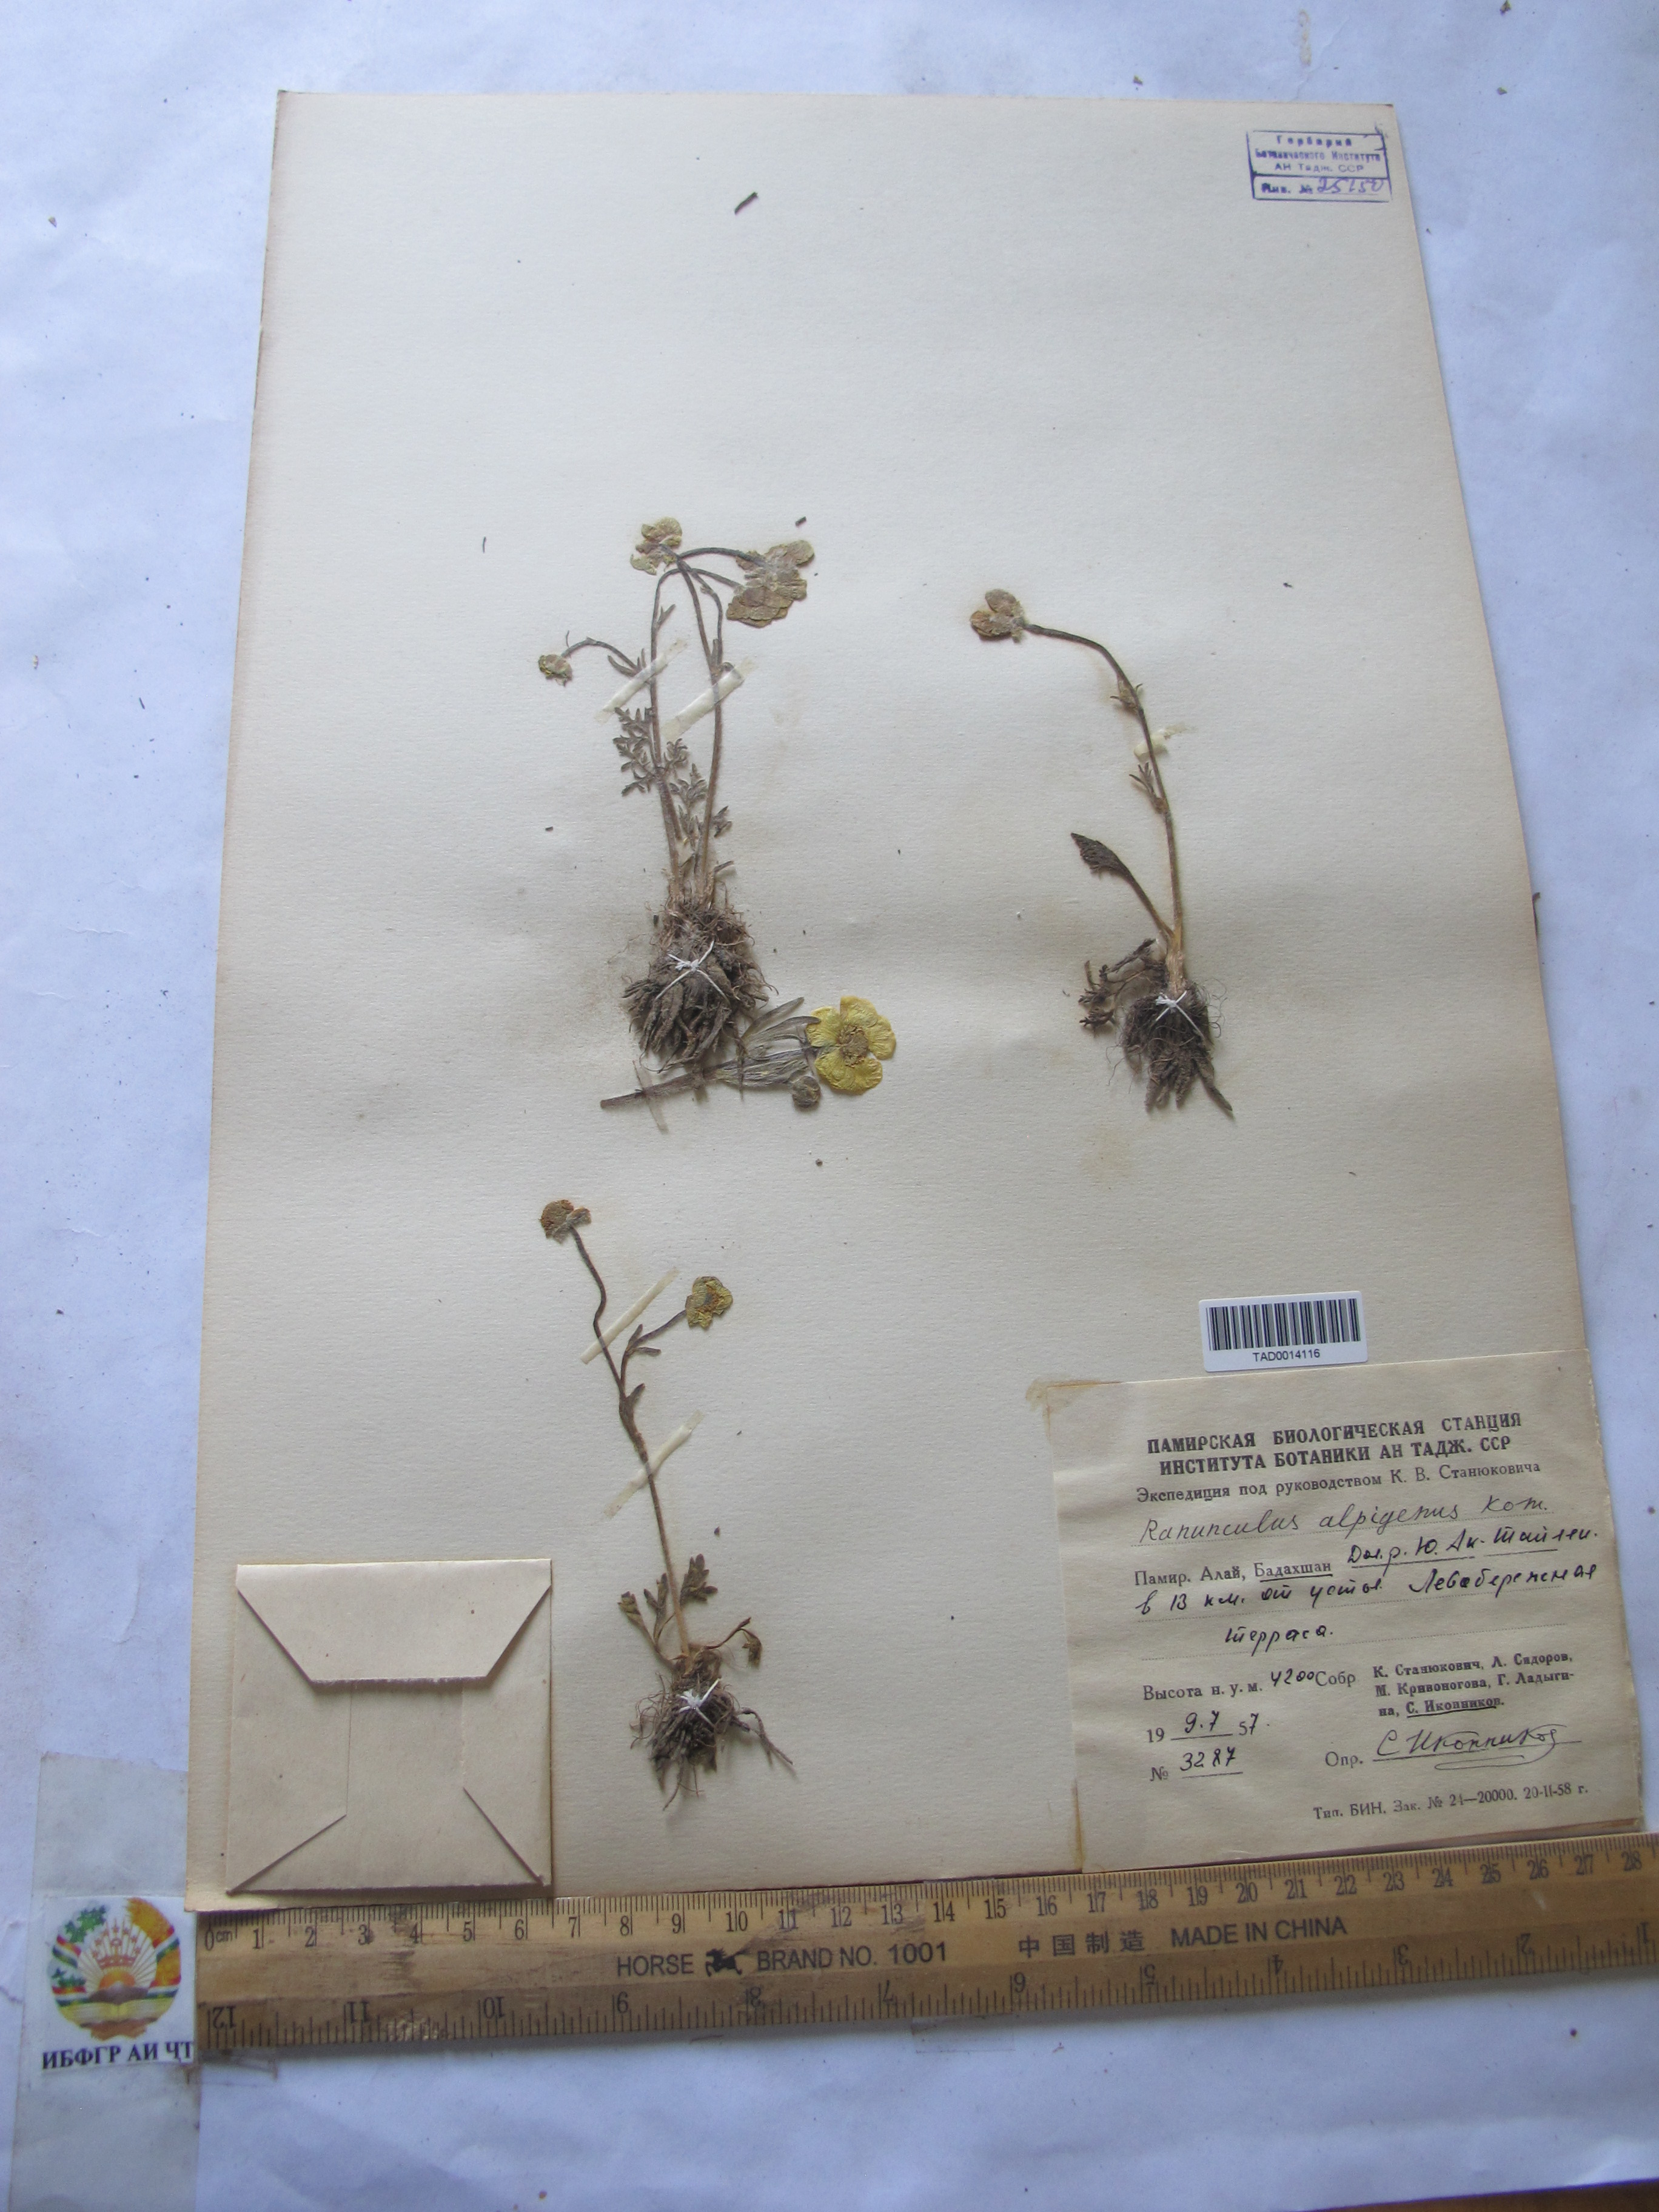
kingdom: Plantae
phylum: Tracheophyta
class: Magnoliopsida
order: Ranunculales
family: Ranunculaceae
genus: Ranunculus
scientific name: Ranunculus alpigenus
